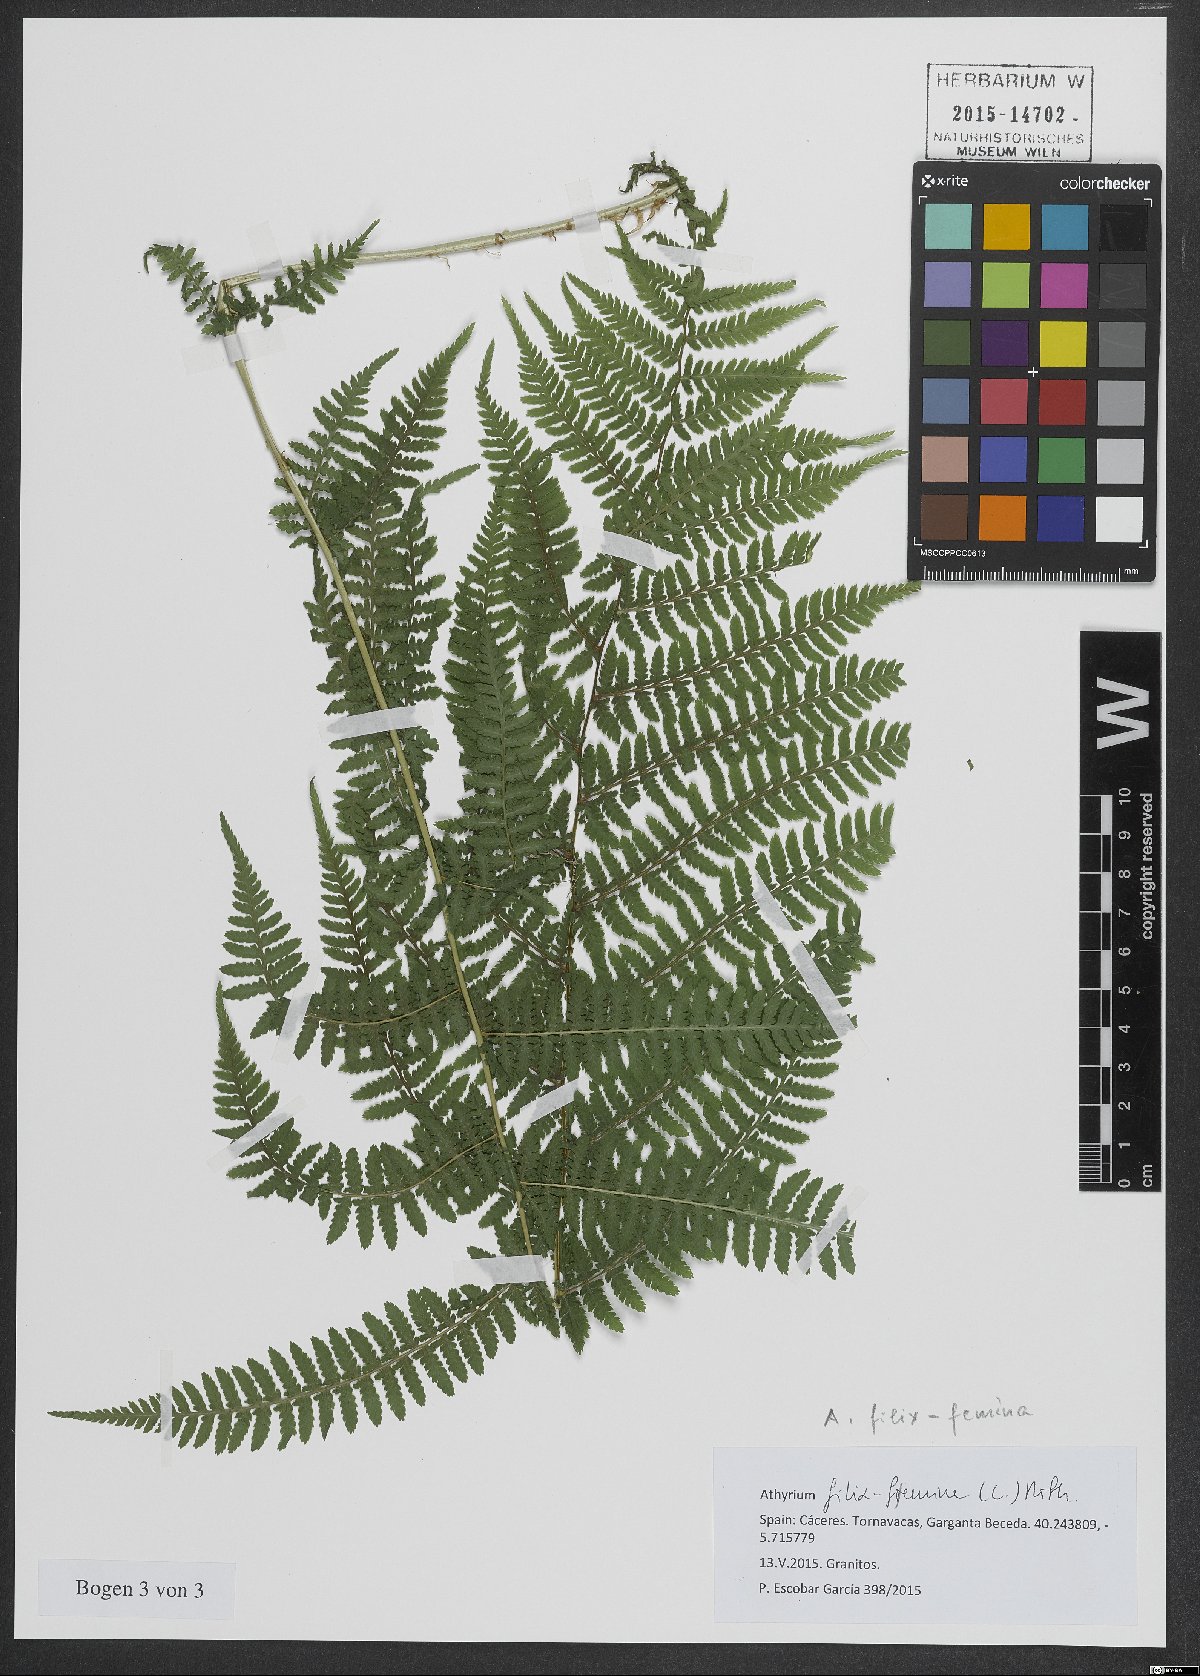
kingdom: Plantae
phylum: Tracheophyta
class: Polypodiopsida
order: Polypodiales
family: Athyriaceae
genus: Athyrium
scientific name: Athyrium filix-femina
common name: Lady fern
